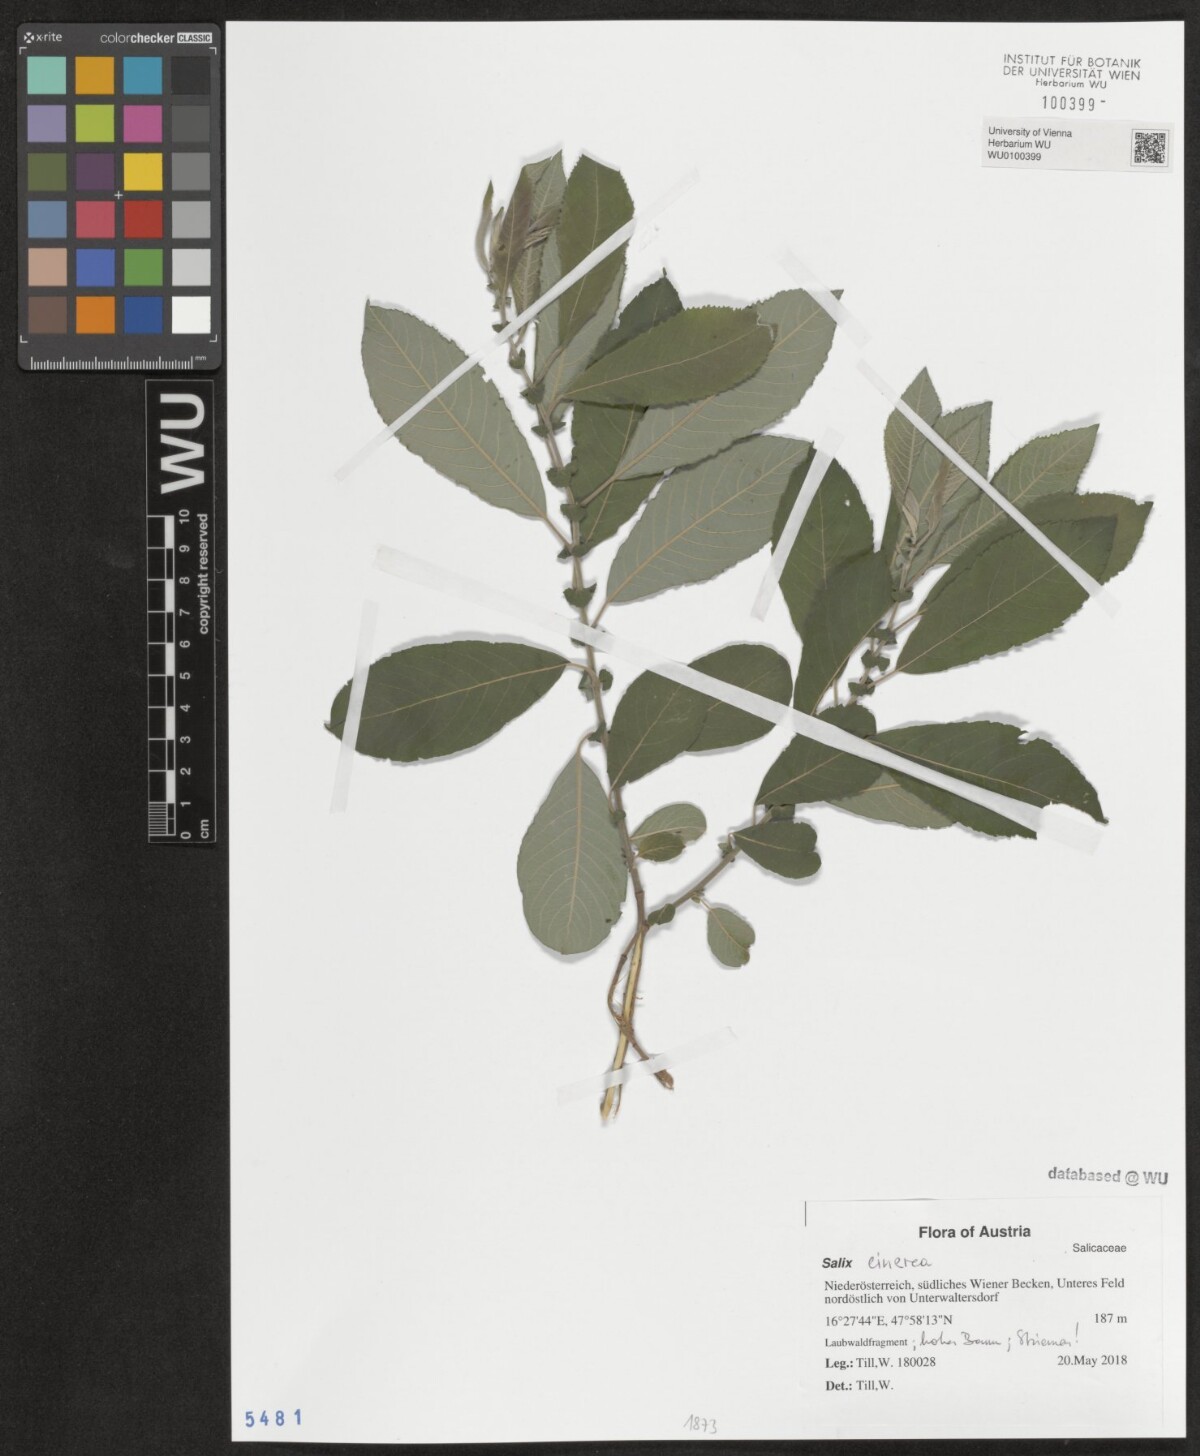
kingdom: Plantae
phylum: Tracheophyta
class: Magnoliopsida
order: Malpighiales
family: Salicaceae
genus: Salix
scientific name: Salix cinerea
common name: Common sallow
